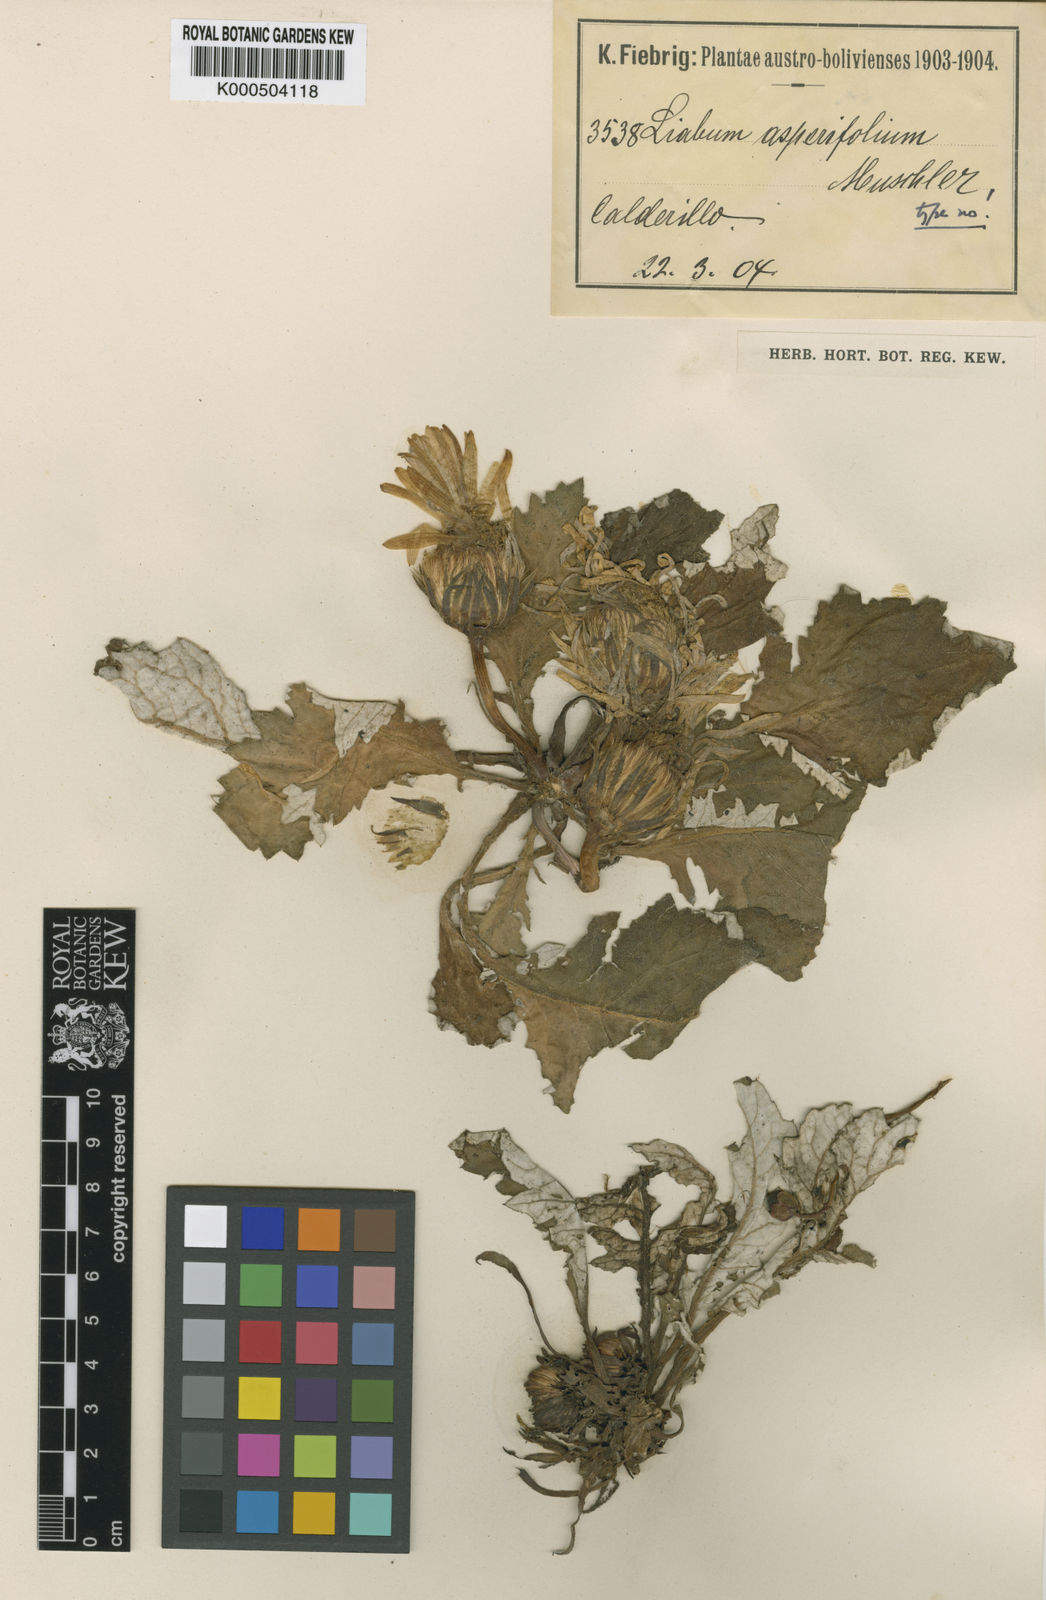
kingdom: Plantae
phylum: Tracheophyta
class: Magnoliopsida
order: Asterales
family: Asteraceae
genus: Paranephelius
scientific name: Paranephelius asperifolius
